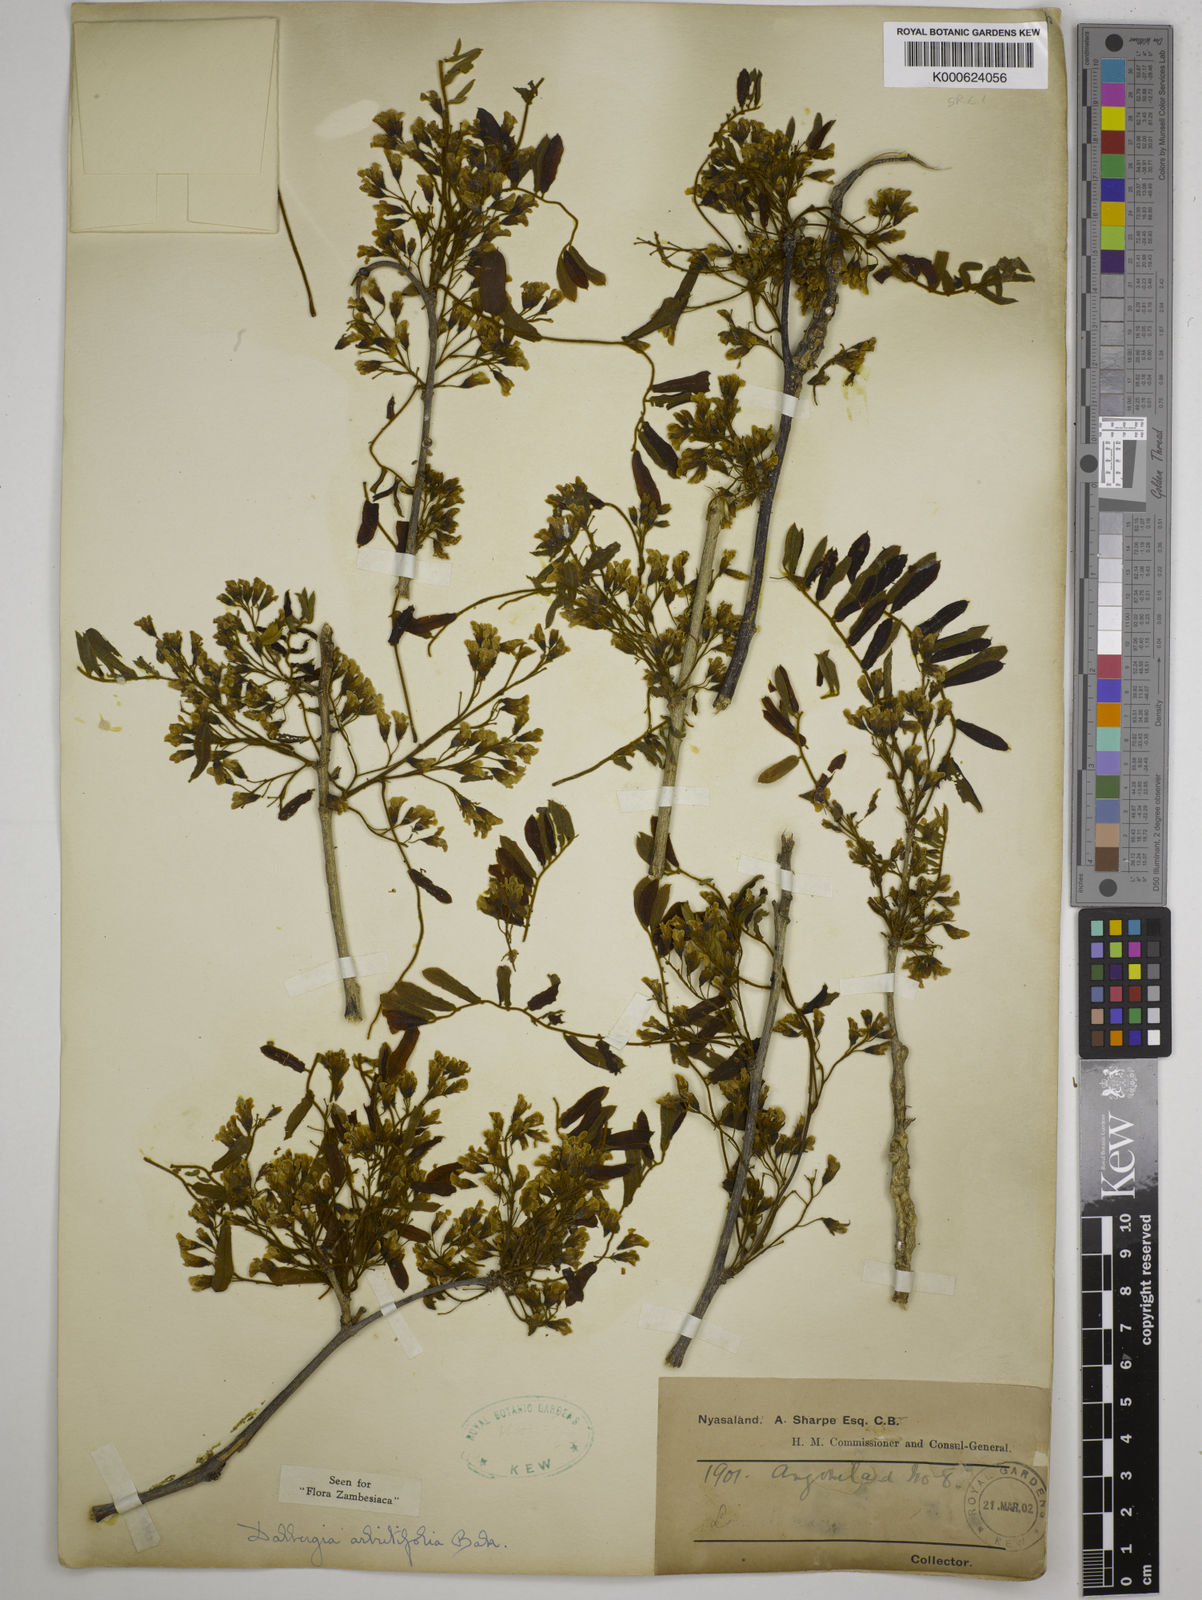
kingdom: Plantae
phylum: Tracheophyta
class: Magnoliopsida
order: Fabales
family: Fabaceae
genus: Dalbergia
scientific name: Dalbergia arbutifolia
